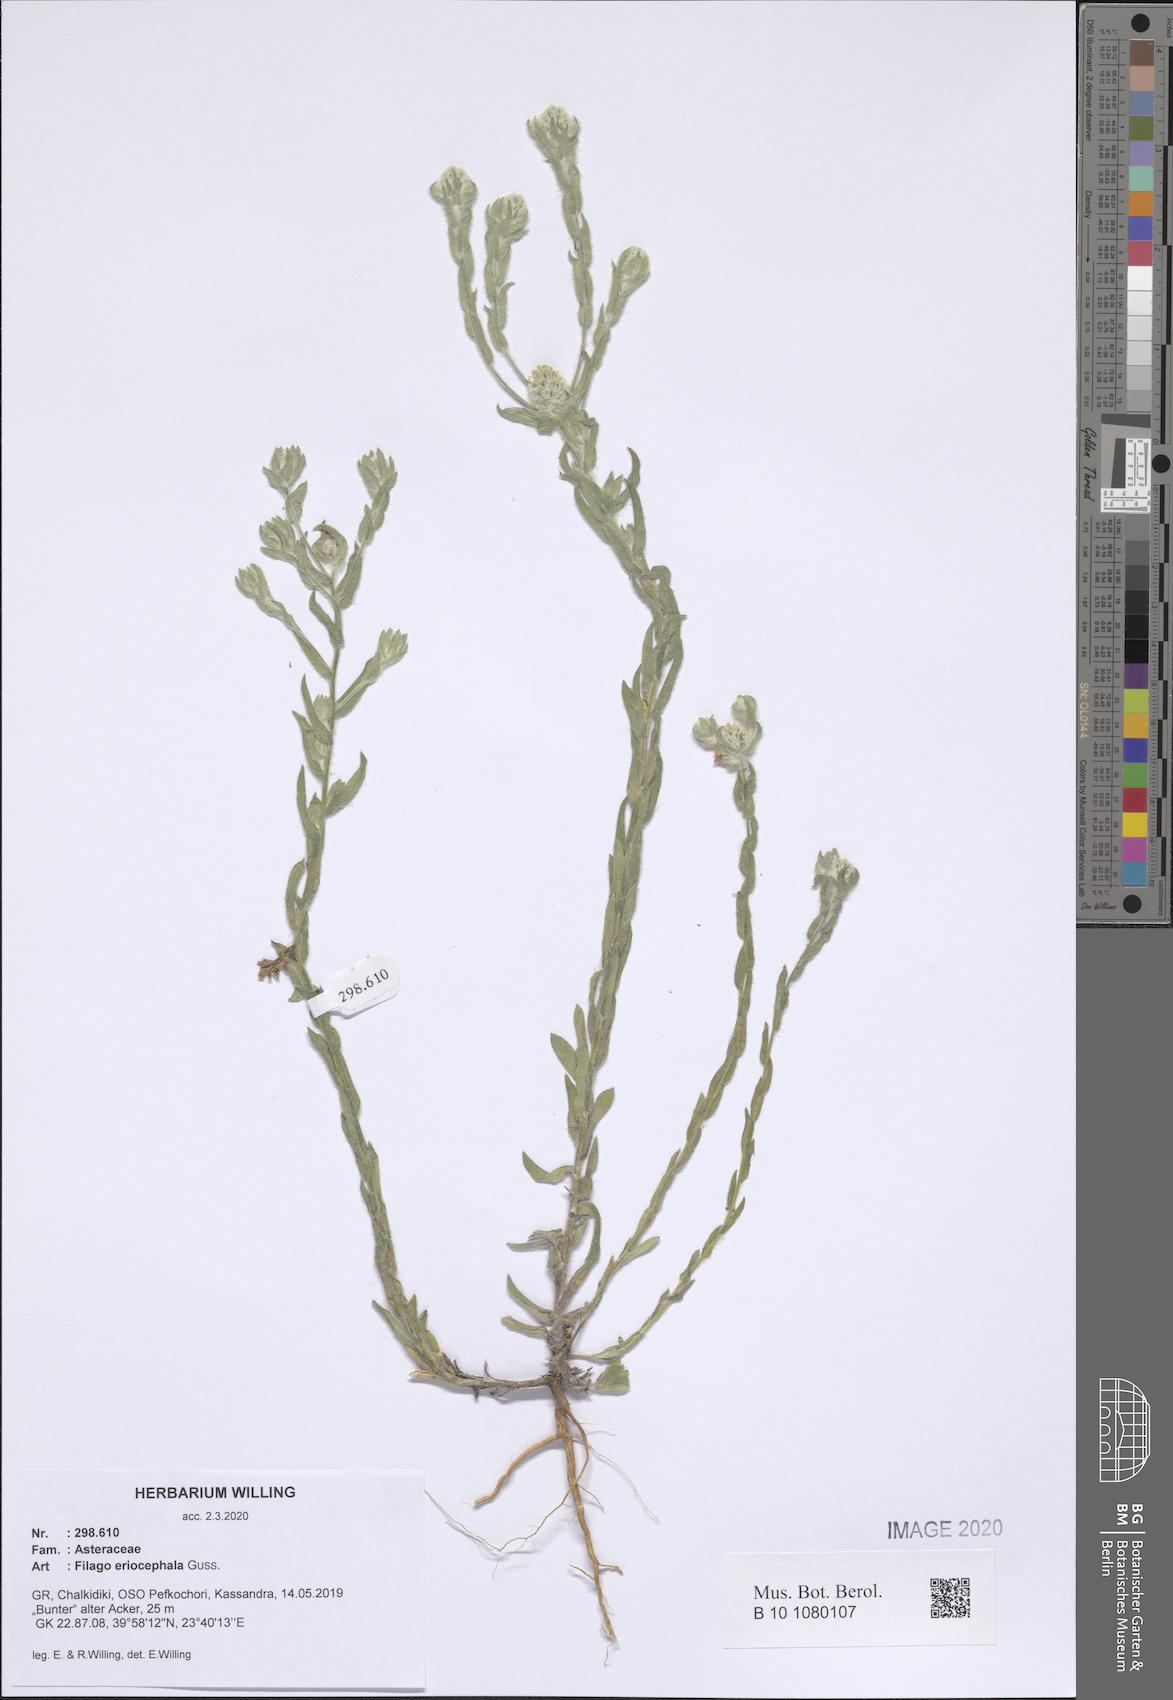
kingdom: Plantae
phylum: Tracheophyta
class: Magnoliopsida
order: Asterales
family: Asteraceae
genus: Filago
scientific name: Filago eriocephala
